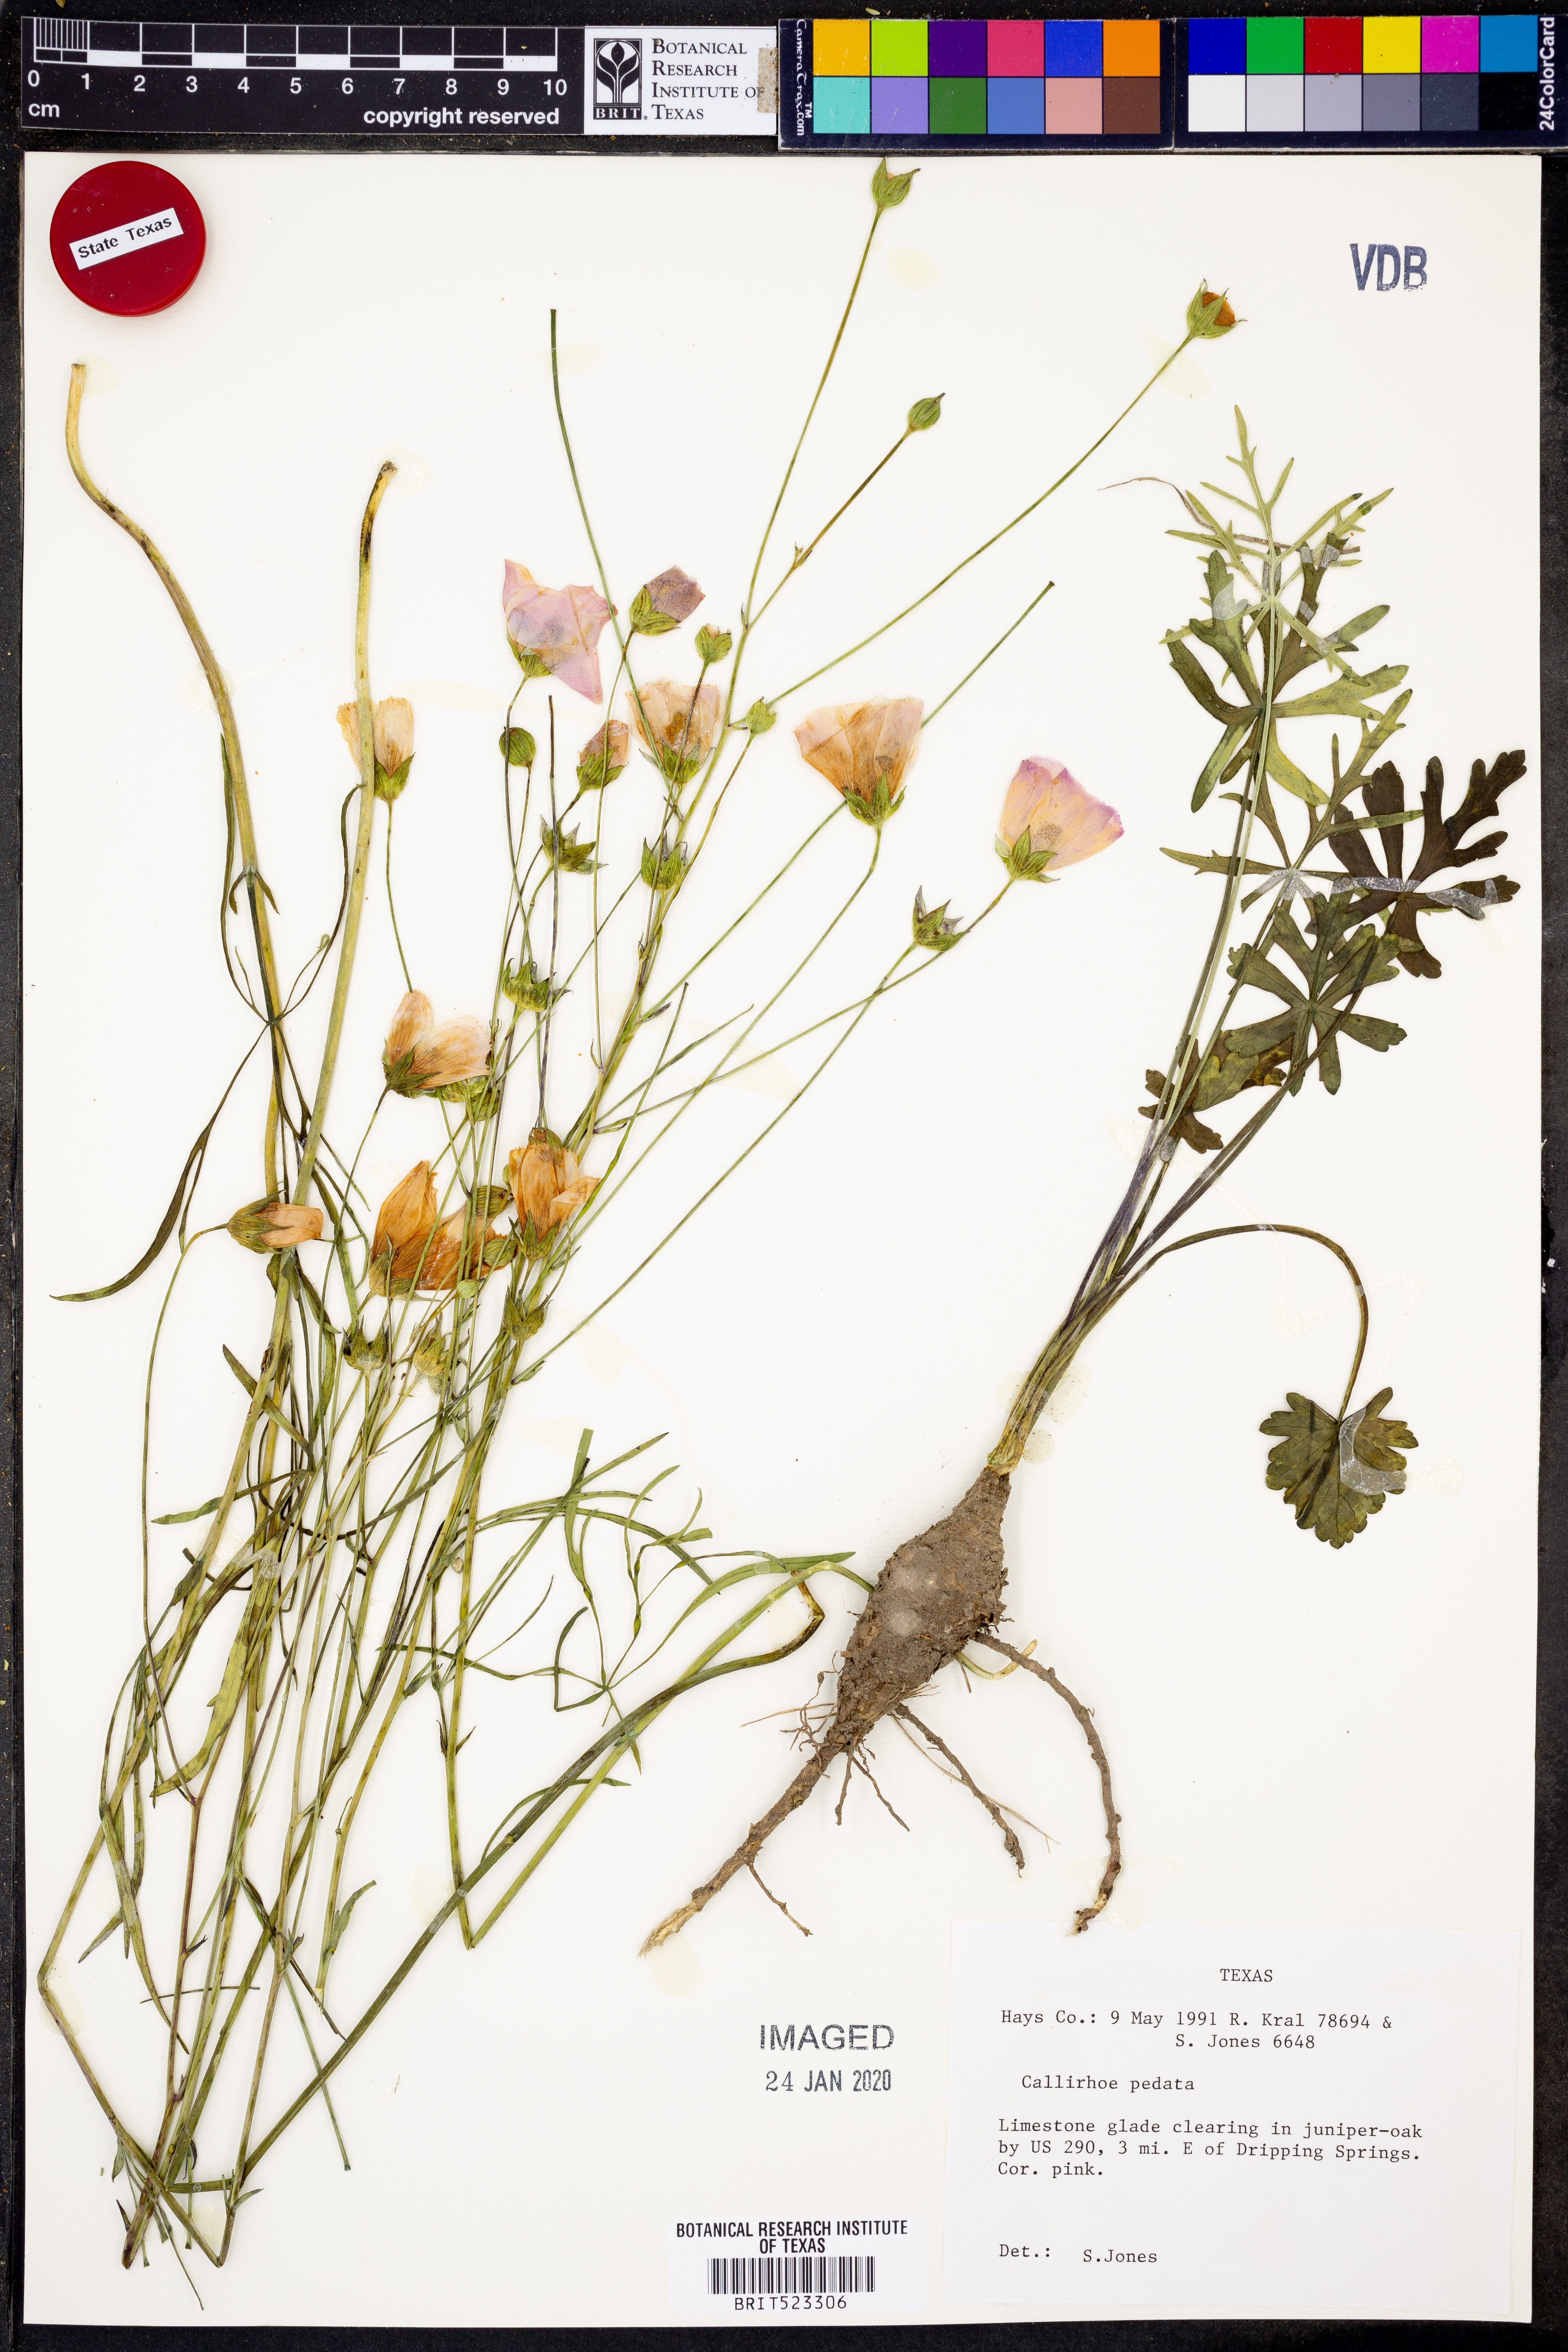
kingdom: Plantae
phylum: Tracheophyta
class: Magnoliopsida
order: Malvales
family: Malvaceae
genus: Callirhoe
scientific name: Callirhoe pedata
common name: Finger poppy-mallow
